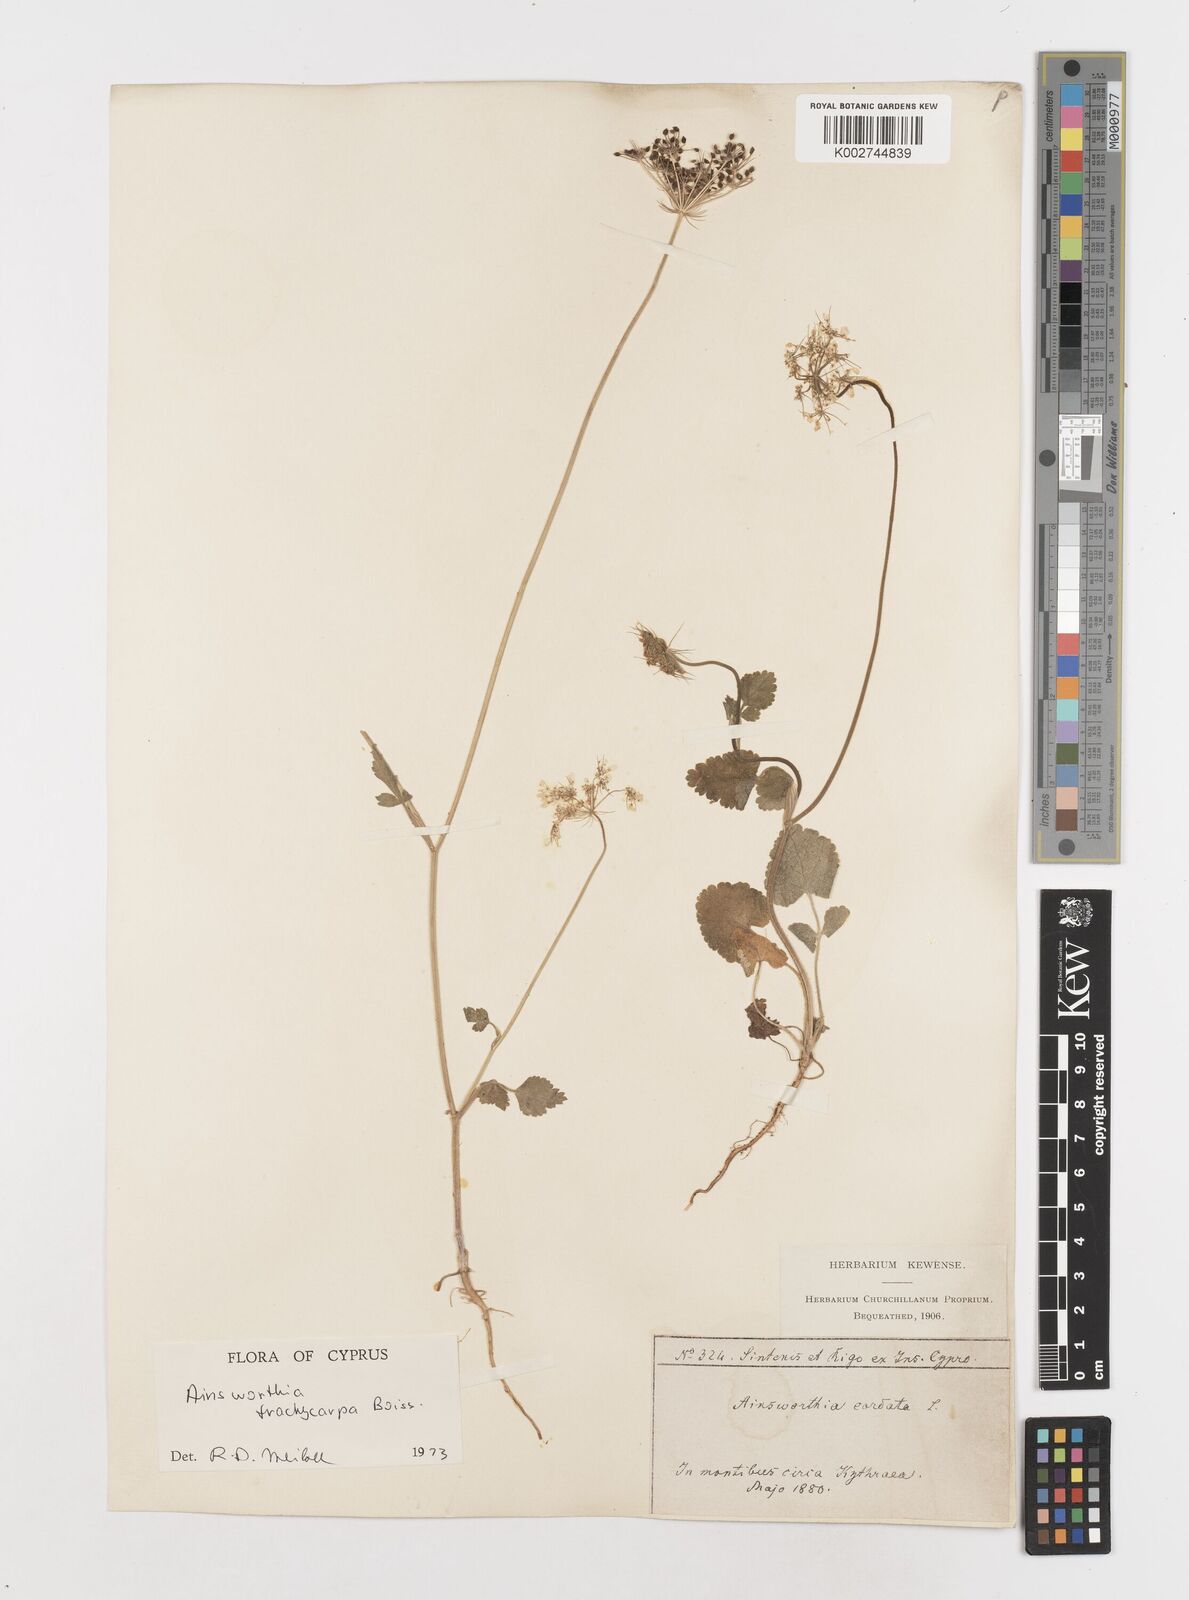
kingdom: Plantae
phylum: Tracheophyta
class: Magnoliopsida
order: Apiales
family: Apiaceae
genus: Ainsworthia
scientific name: Ainsworthia trachycarpa
